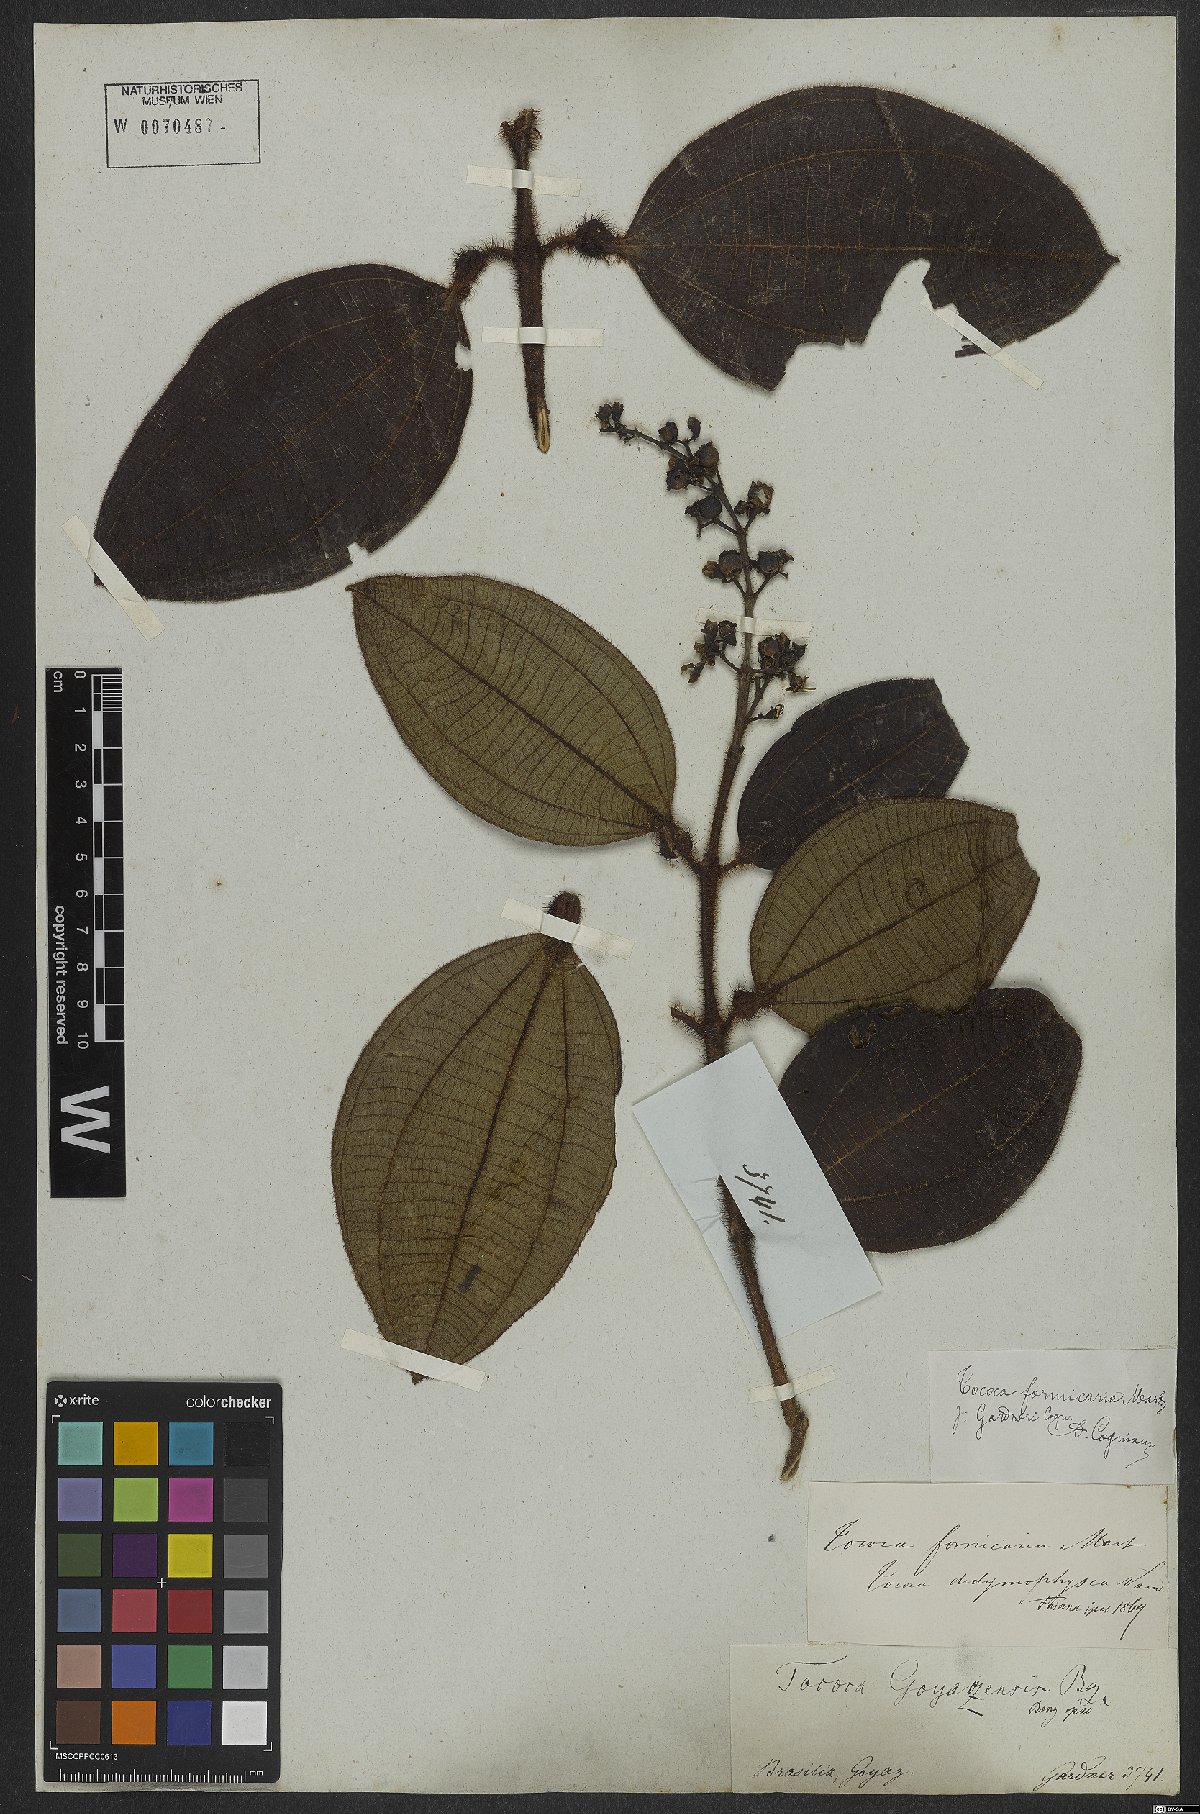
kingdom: Plantae
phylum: Tracheophyta
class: Magnoliopsida
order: Myrtales
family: Melastomataceae
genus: Miconia
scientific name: Miconia tococa
